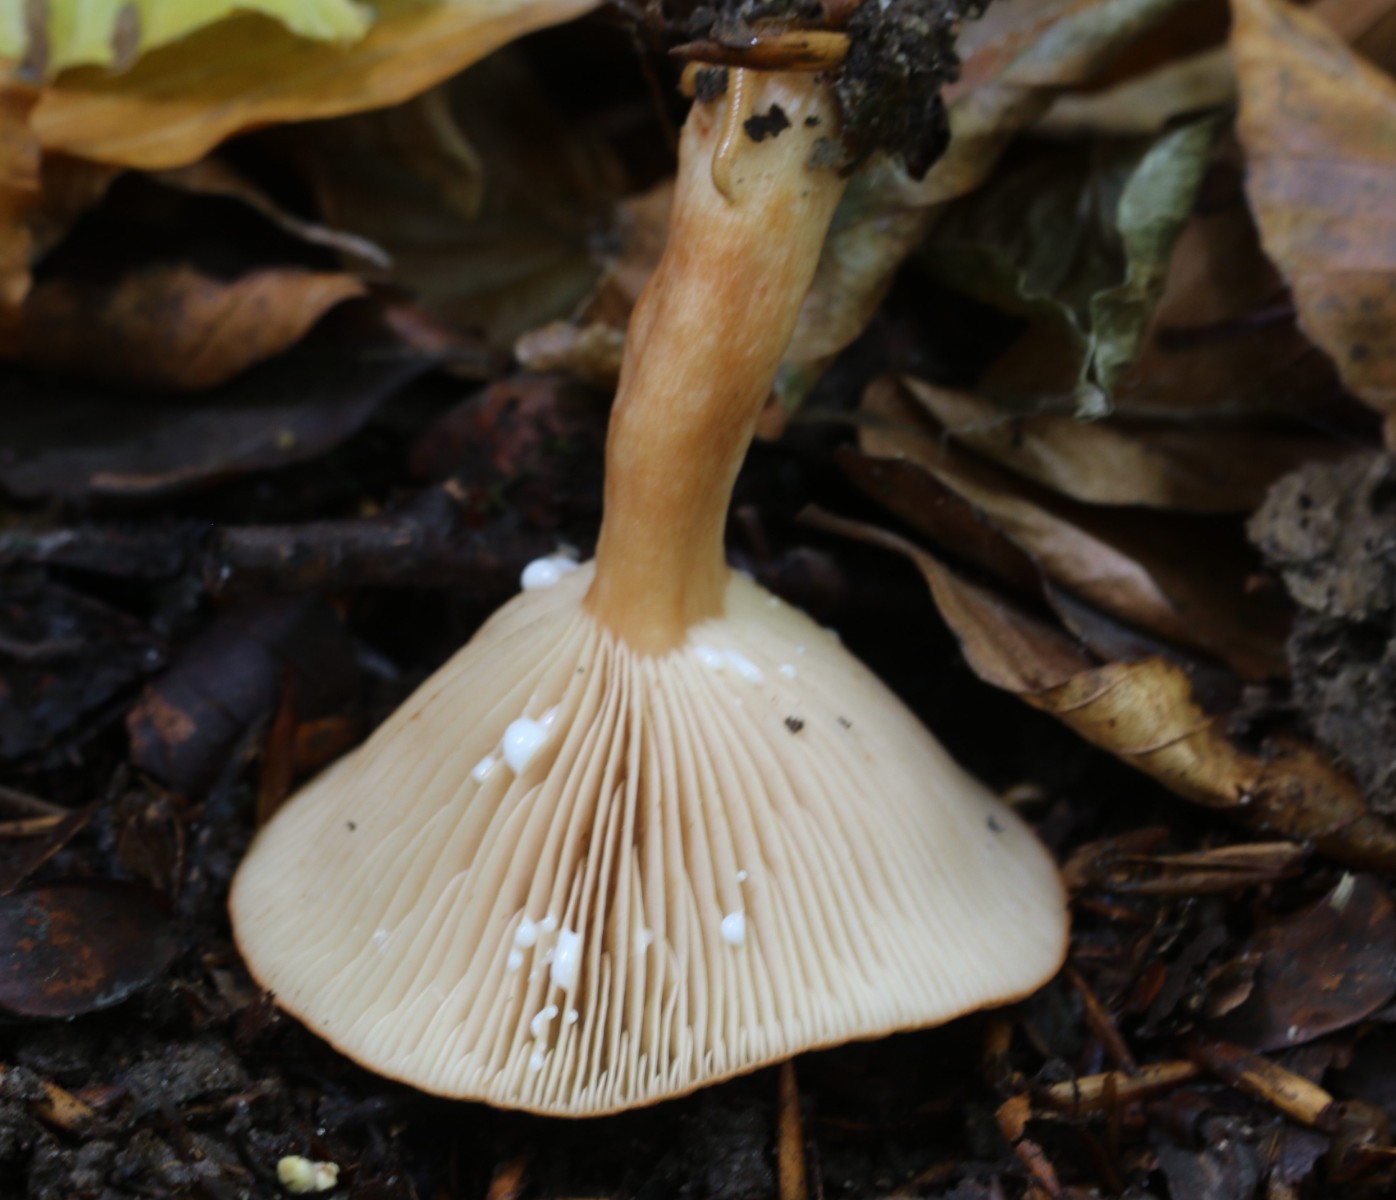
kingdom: Fungi
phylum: Basidiomycota
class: Agaricomycetes
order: Russulales
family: Russulaceae
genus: Lactarius
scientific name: Lactarius
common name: mælkehat
